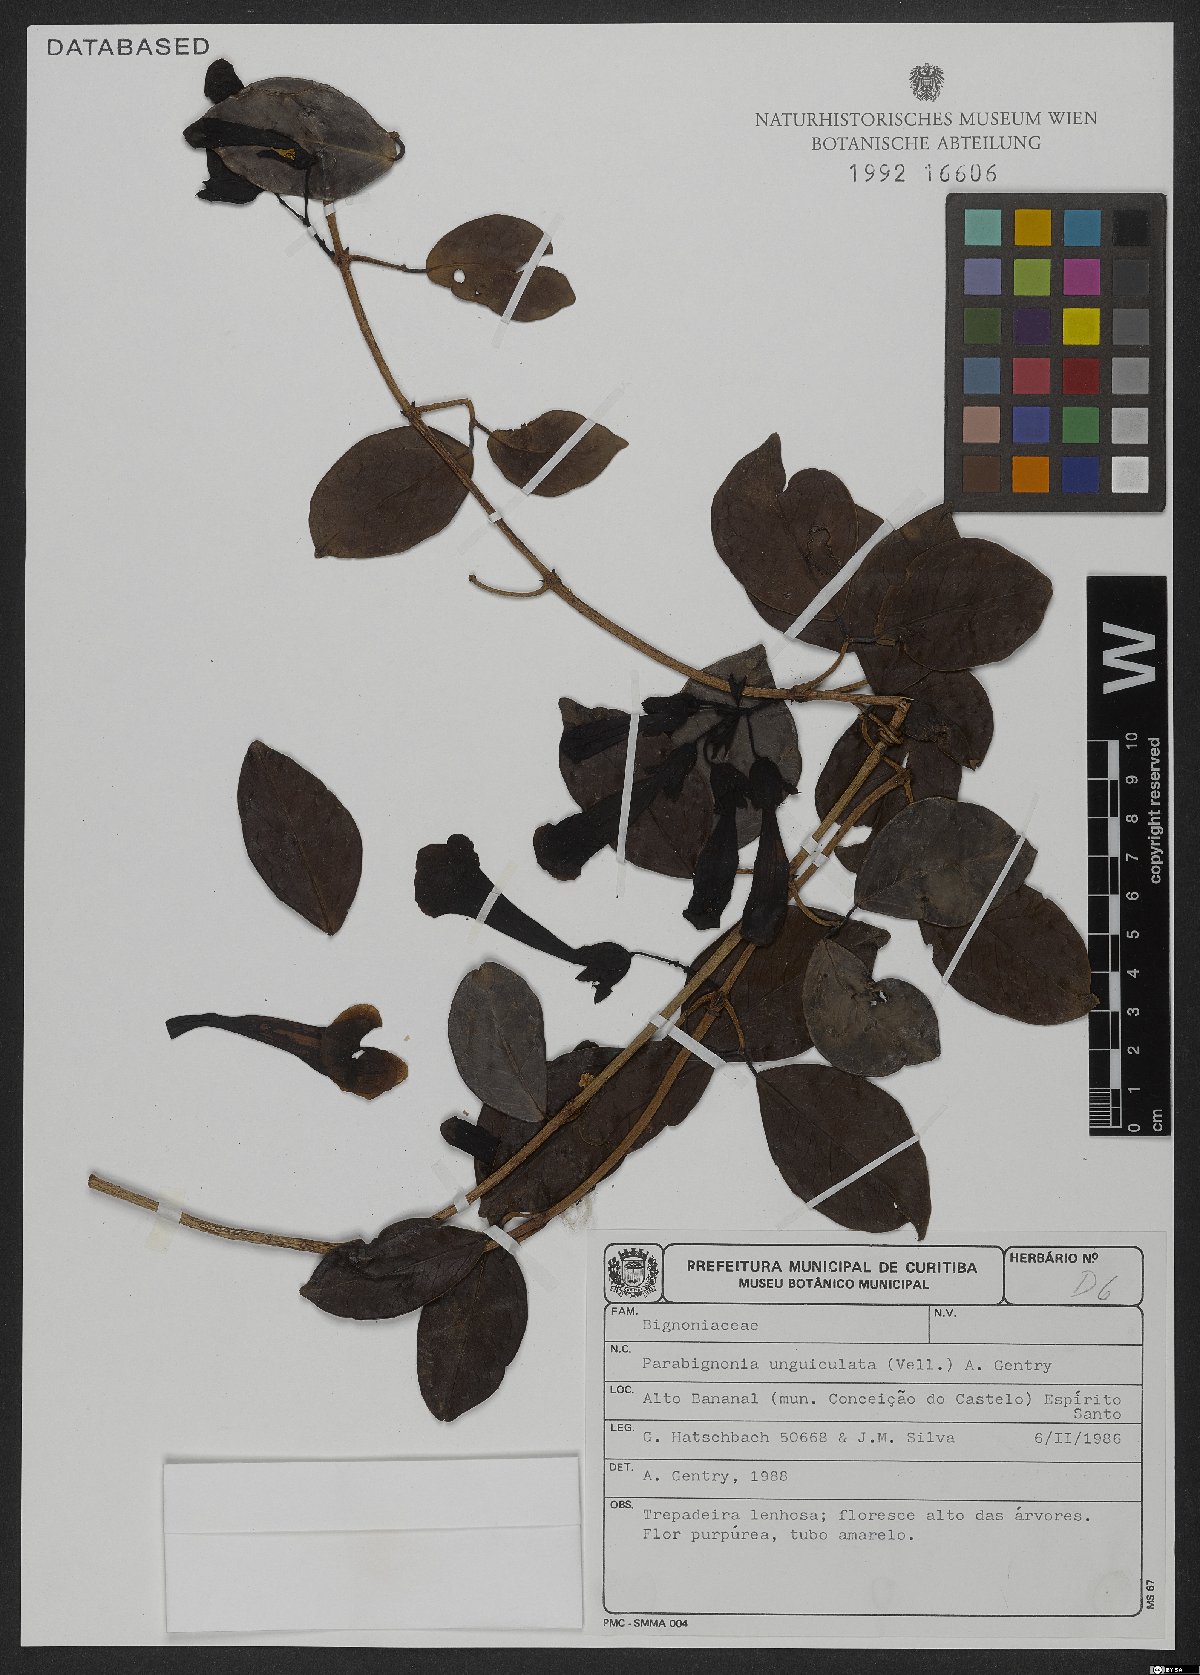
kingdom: Plantae
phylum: Tracheophyta
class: Magnoliopsida
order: Lamiales
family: Bignoniaceae
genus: Dolichandra
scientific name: Dolichandra unguiculata
